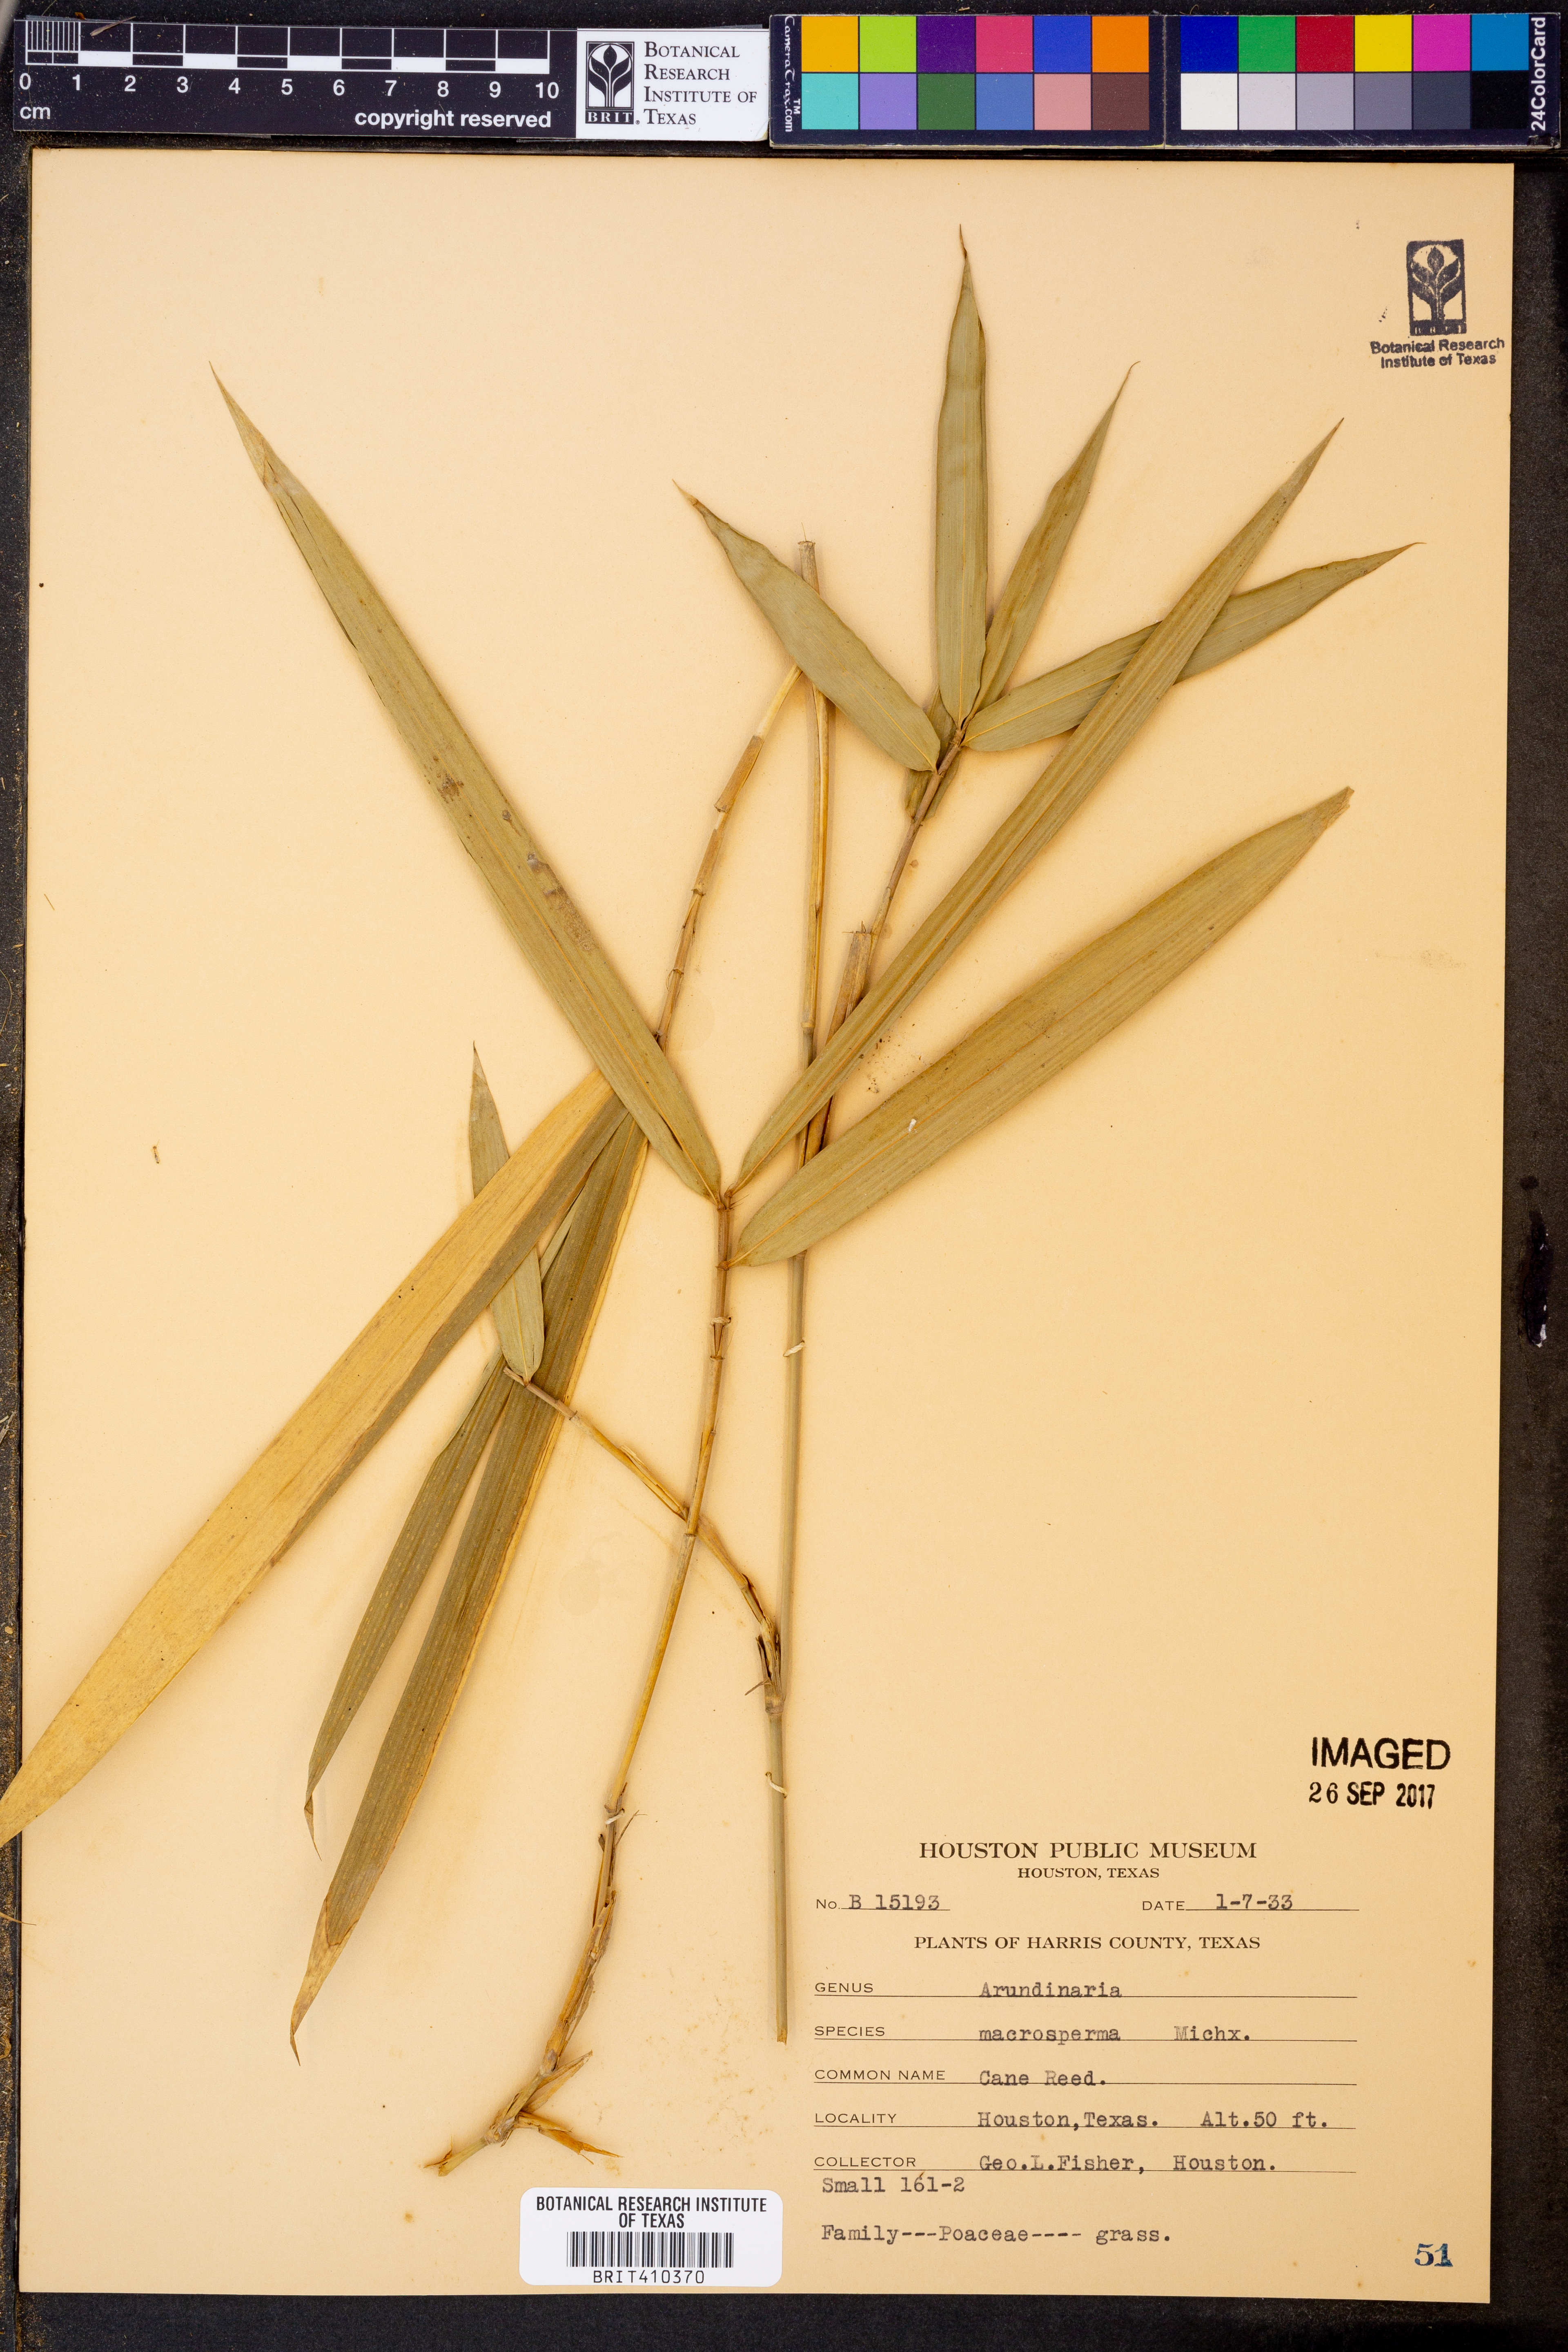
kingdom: Plantae
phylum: Tracheophyta
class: Liliopsida
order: Poales
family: Poaceae
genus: Arundinaria
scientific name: Arundinaria gigantea
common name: Giant cane
